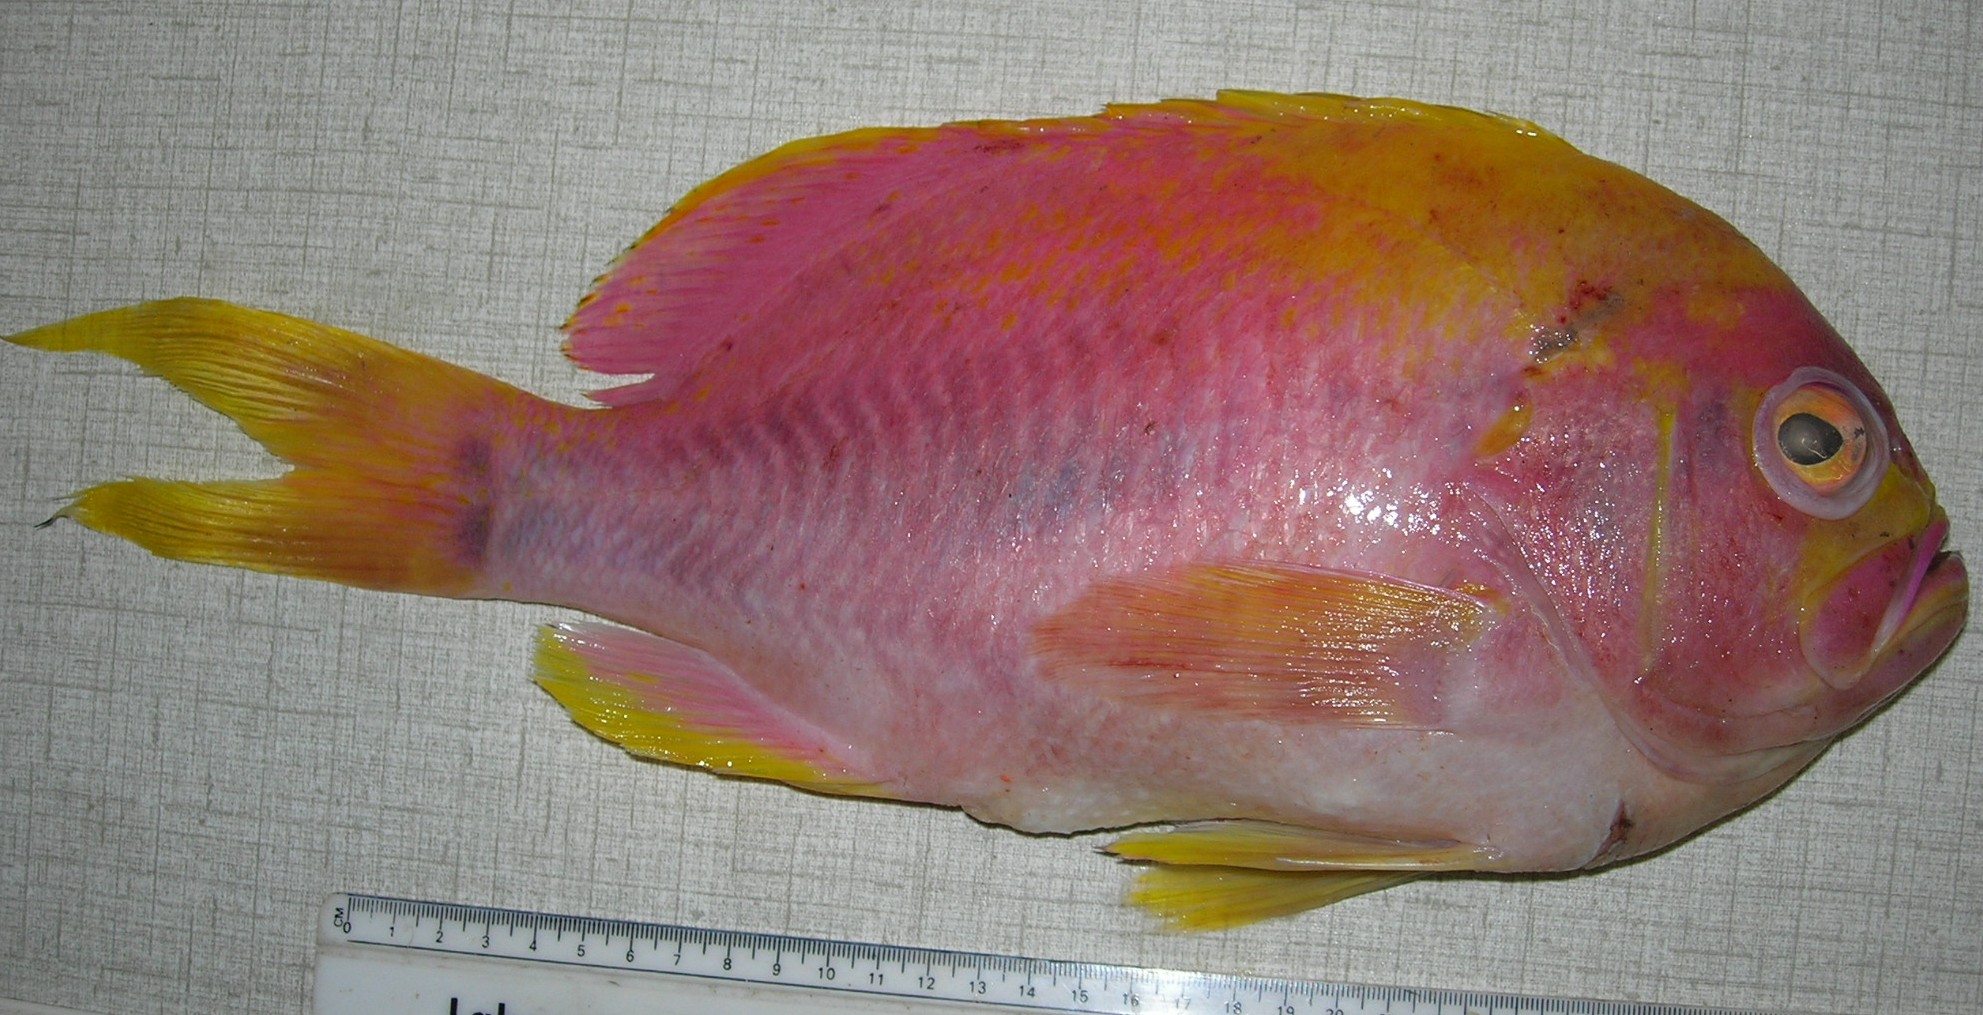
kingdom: Animalia
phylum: Chordata
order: Perciformes
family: Serranidae
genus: Meganthias
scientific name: Meganthias natalensis
